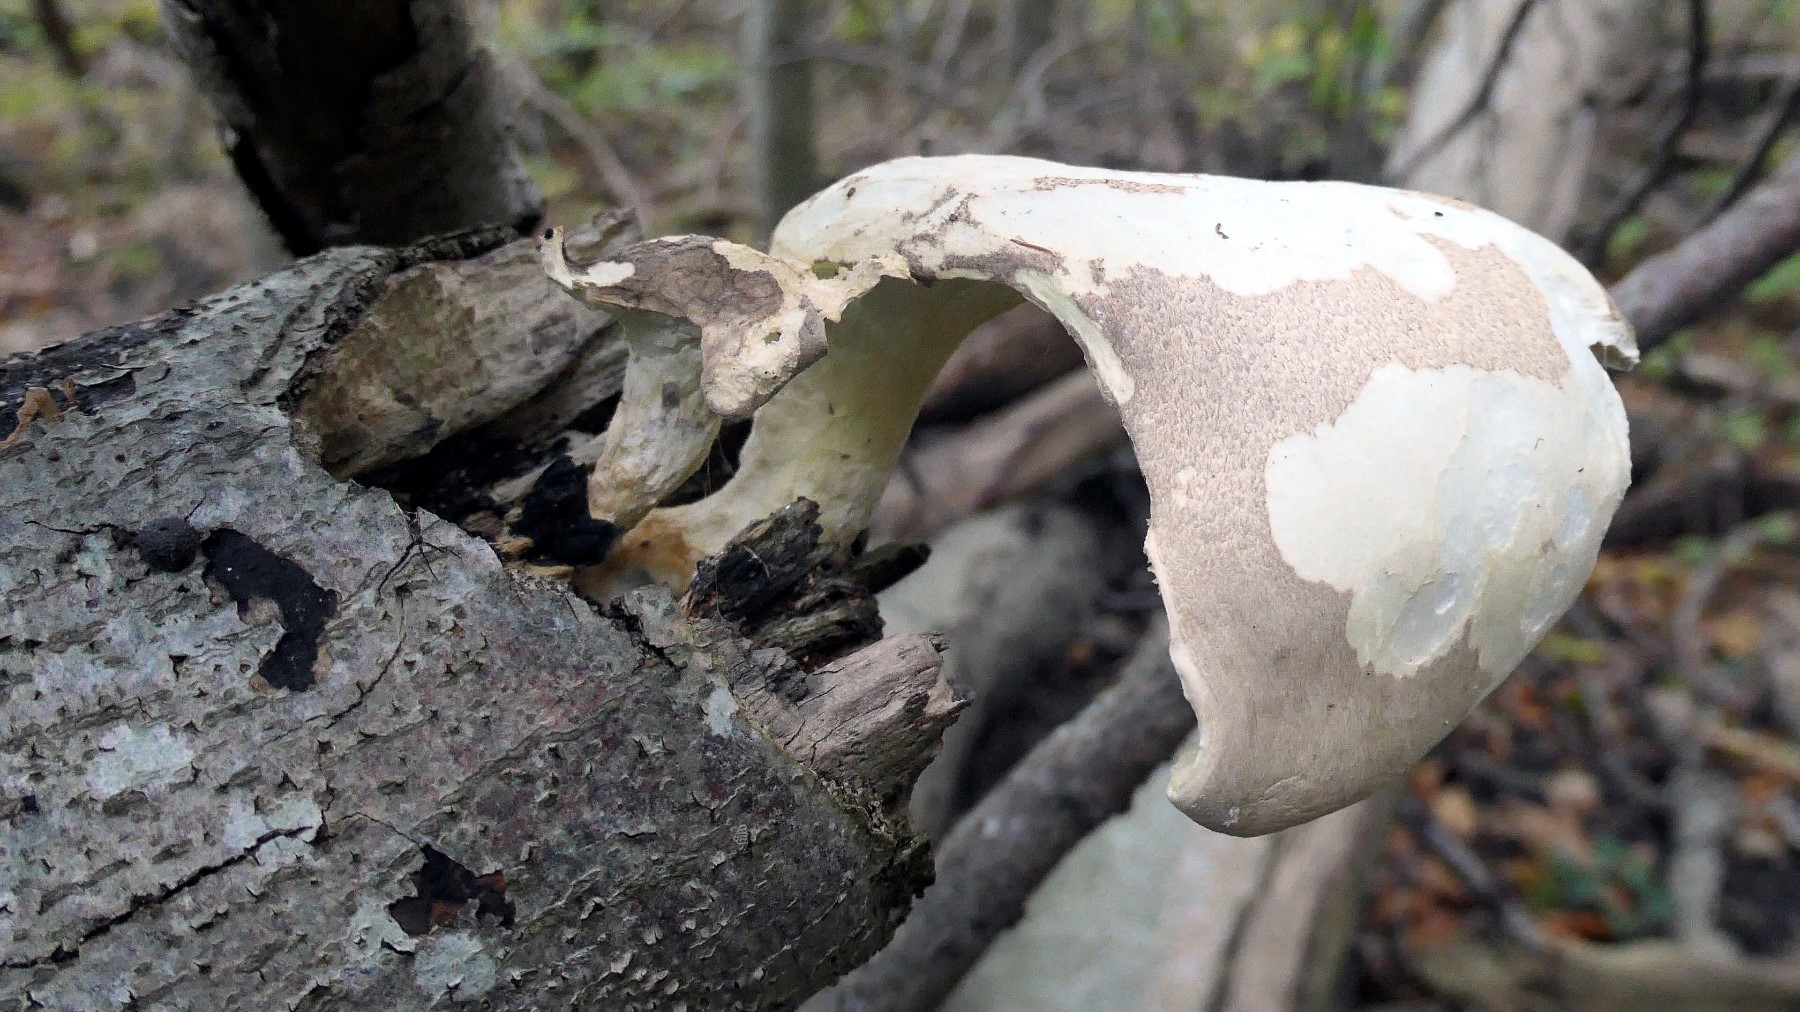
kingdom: Fungi
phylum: Basidiomycota
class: Agaricomycetes
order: Agaricales
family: Pleurotaceae
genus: Pleurotus
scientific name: Pleurotus dryinus
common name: korkagtig østershat
